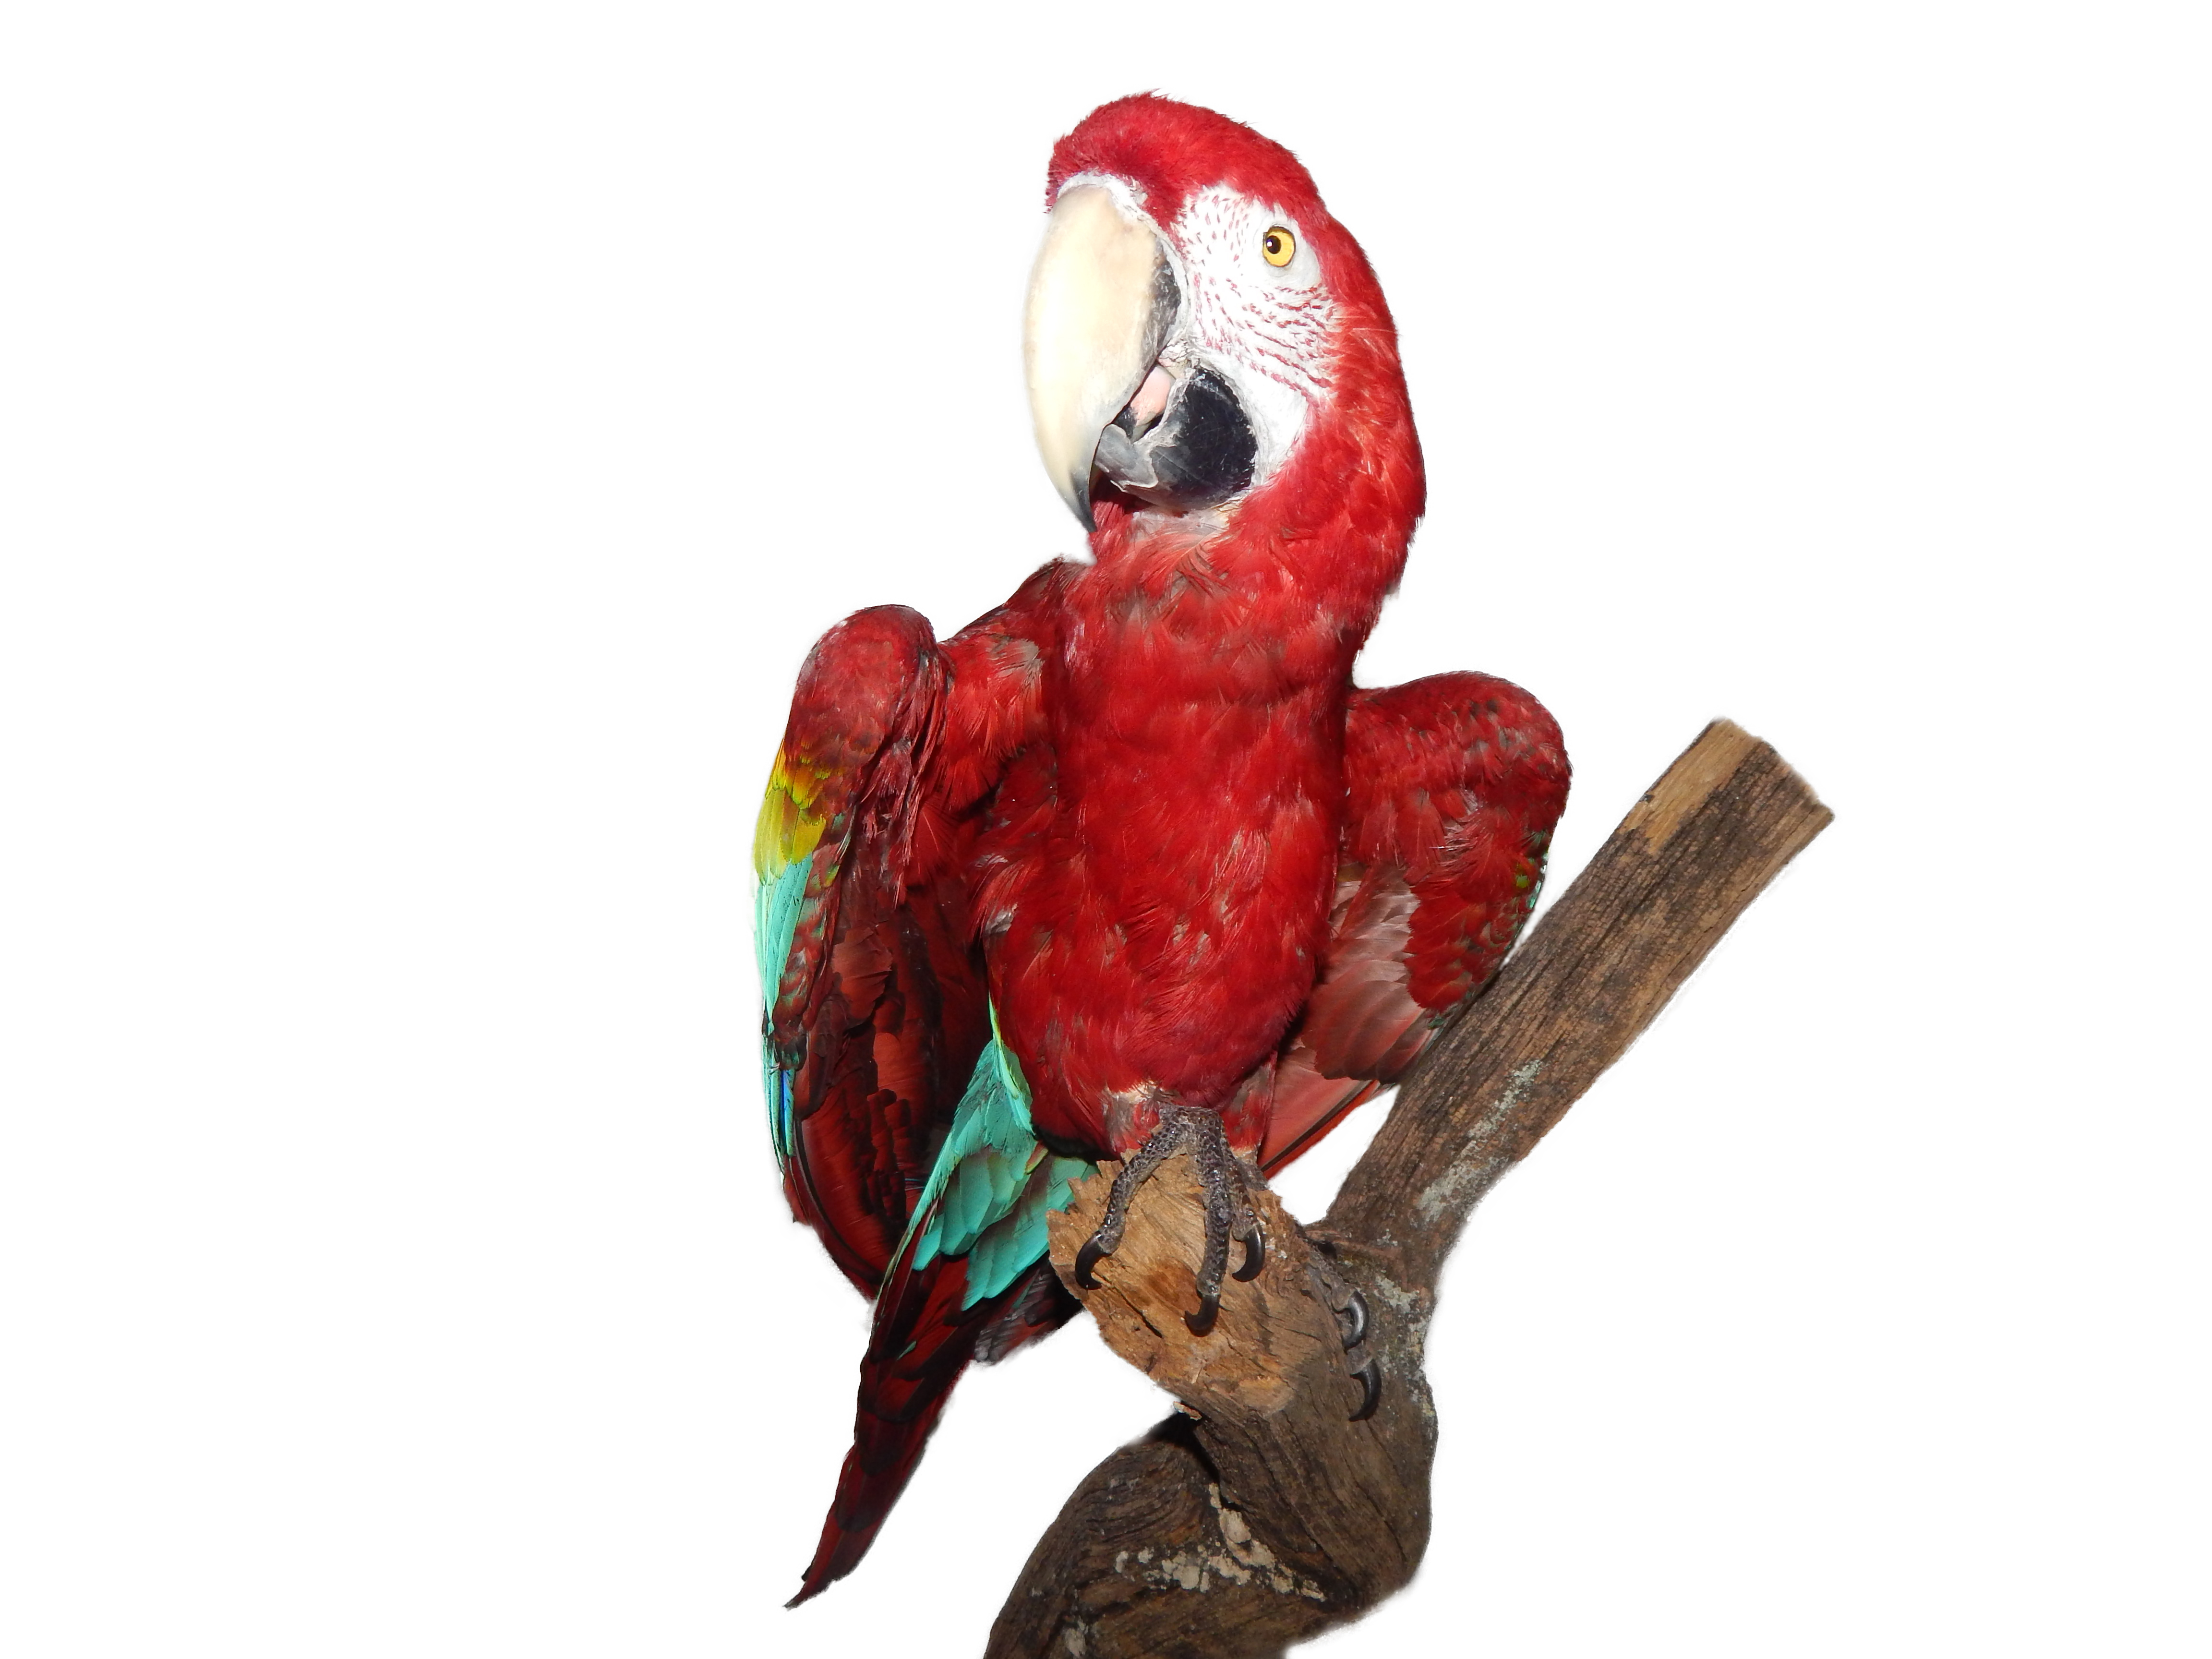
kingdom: Animalia
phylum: Chordata
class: Aves
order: Psittaciformes
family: Psittacidae
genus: Ara
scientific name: Ara chloropterus
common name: Red-and-green macaw
